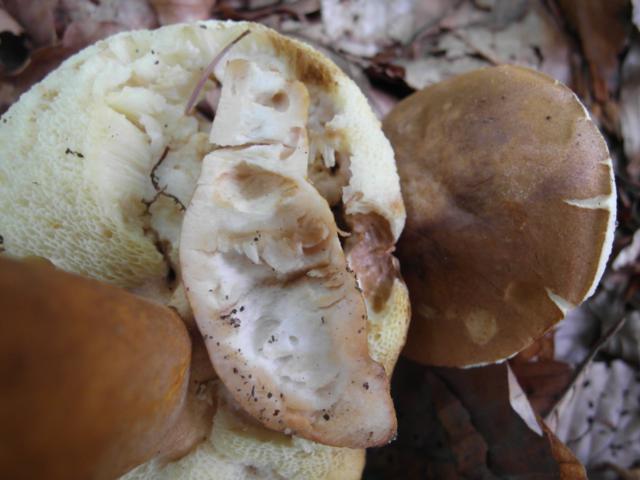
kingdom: Fungi
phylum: Basidiomycota
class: Agaricomycetes
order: Boletales
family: Gyroporaceae
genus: Gyroporus
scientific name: Gyroporus castaneus
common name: kastanie-kammerrørhat
